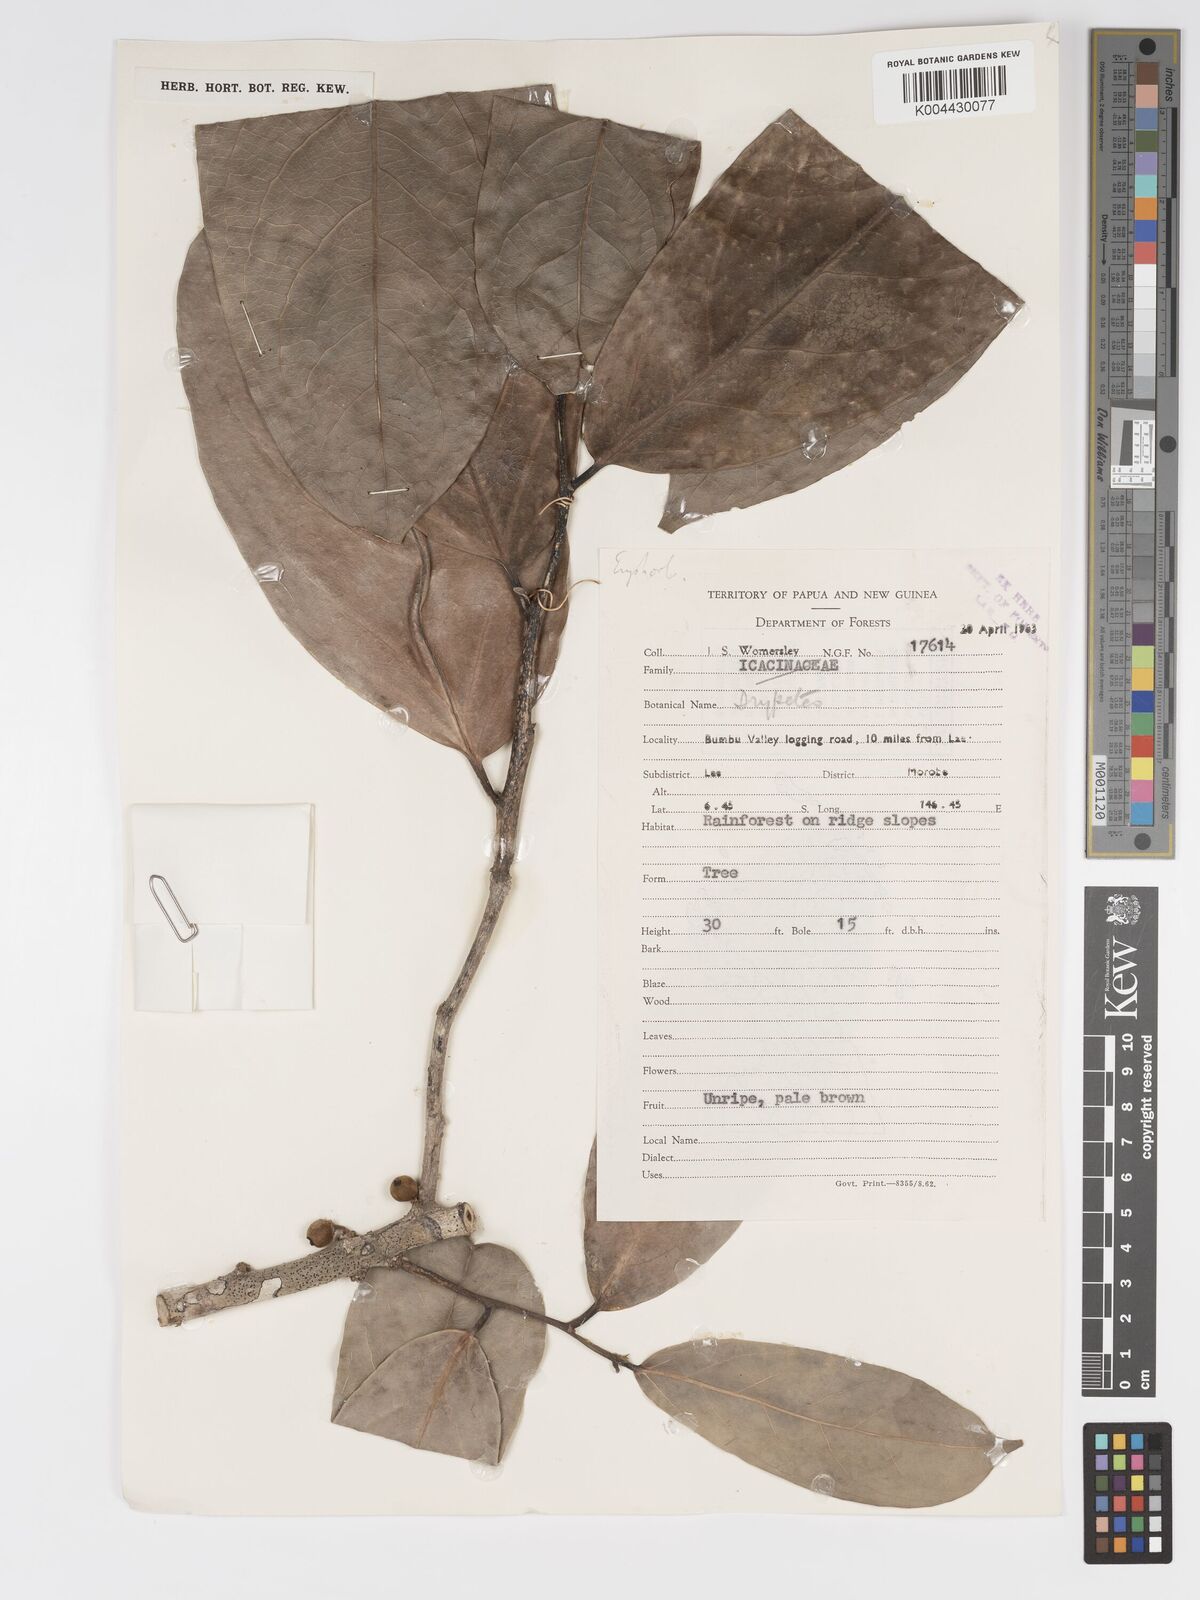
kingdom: Plantae
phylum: Tracheophyta
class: Magnoliopsida
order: Malpighiales
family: Putranjivaceae
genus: Drypetes
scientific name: Drypetes longifolia
